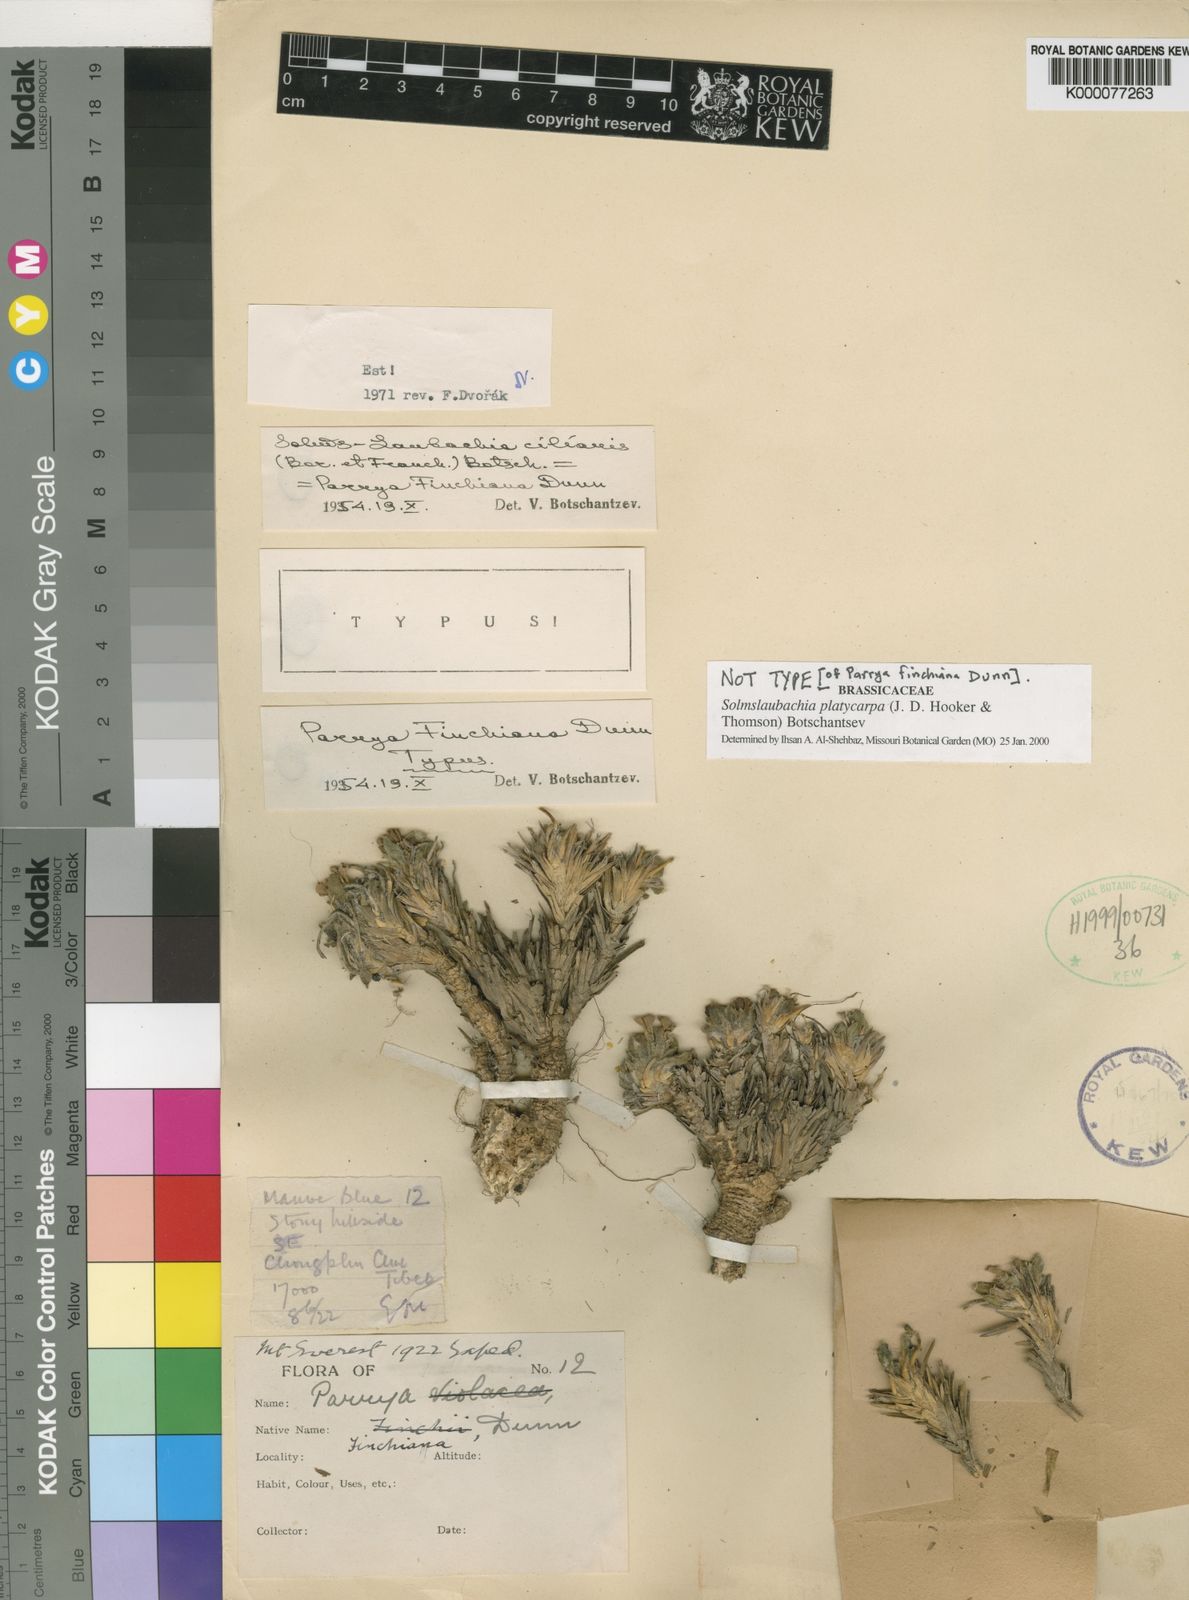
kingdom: Plantae
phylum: Tracheophyta
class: Magnoliopsida
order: Brassicales
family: Brassicaceae
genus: Solms-laubachia
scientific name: Solms-laubachia platycarpa
